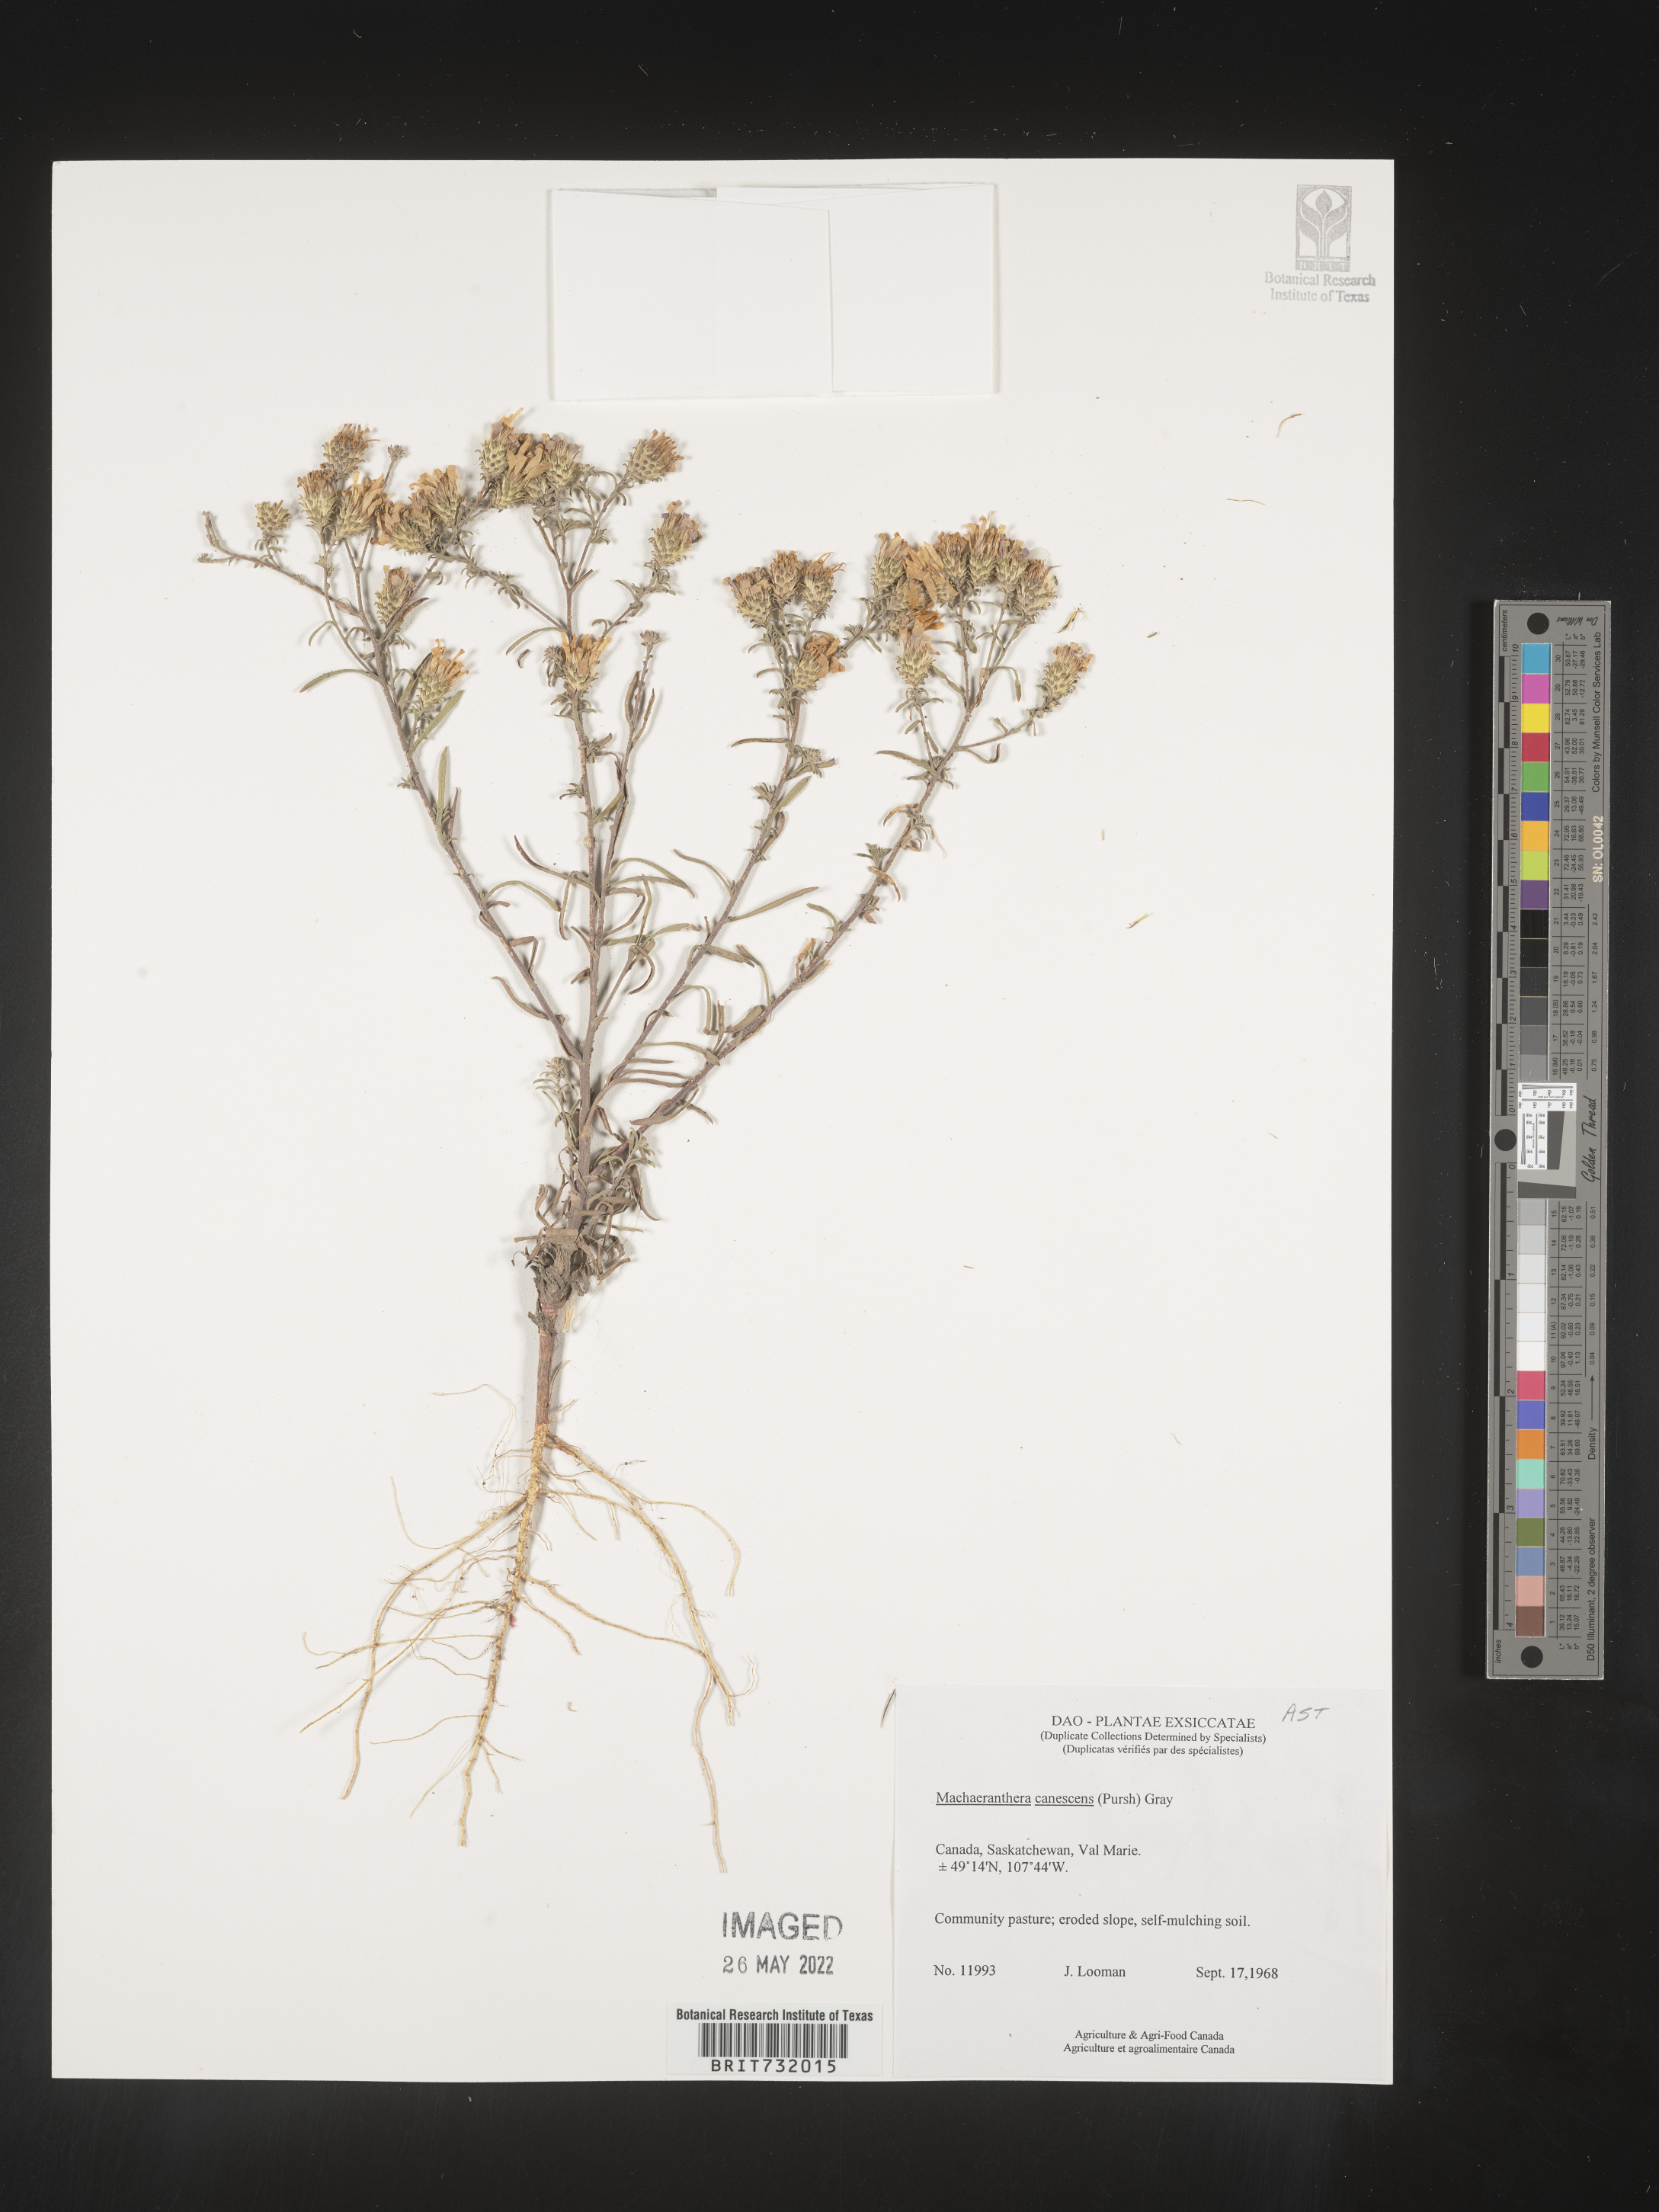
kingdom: Plantae
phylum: Tracheophyta
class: Magnoliopsida
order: Asterales
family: Asteraceae
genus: Dieteria
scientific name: Dieteria canescens
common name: Hoary-aster
